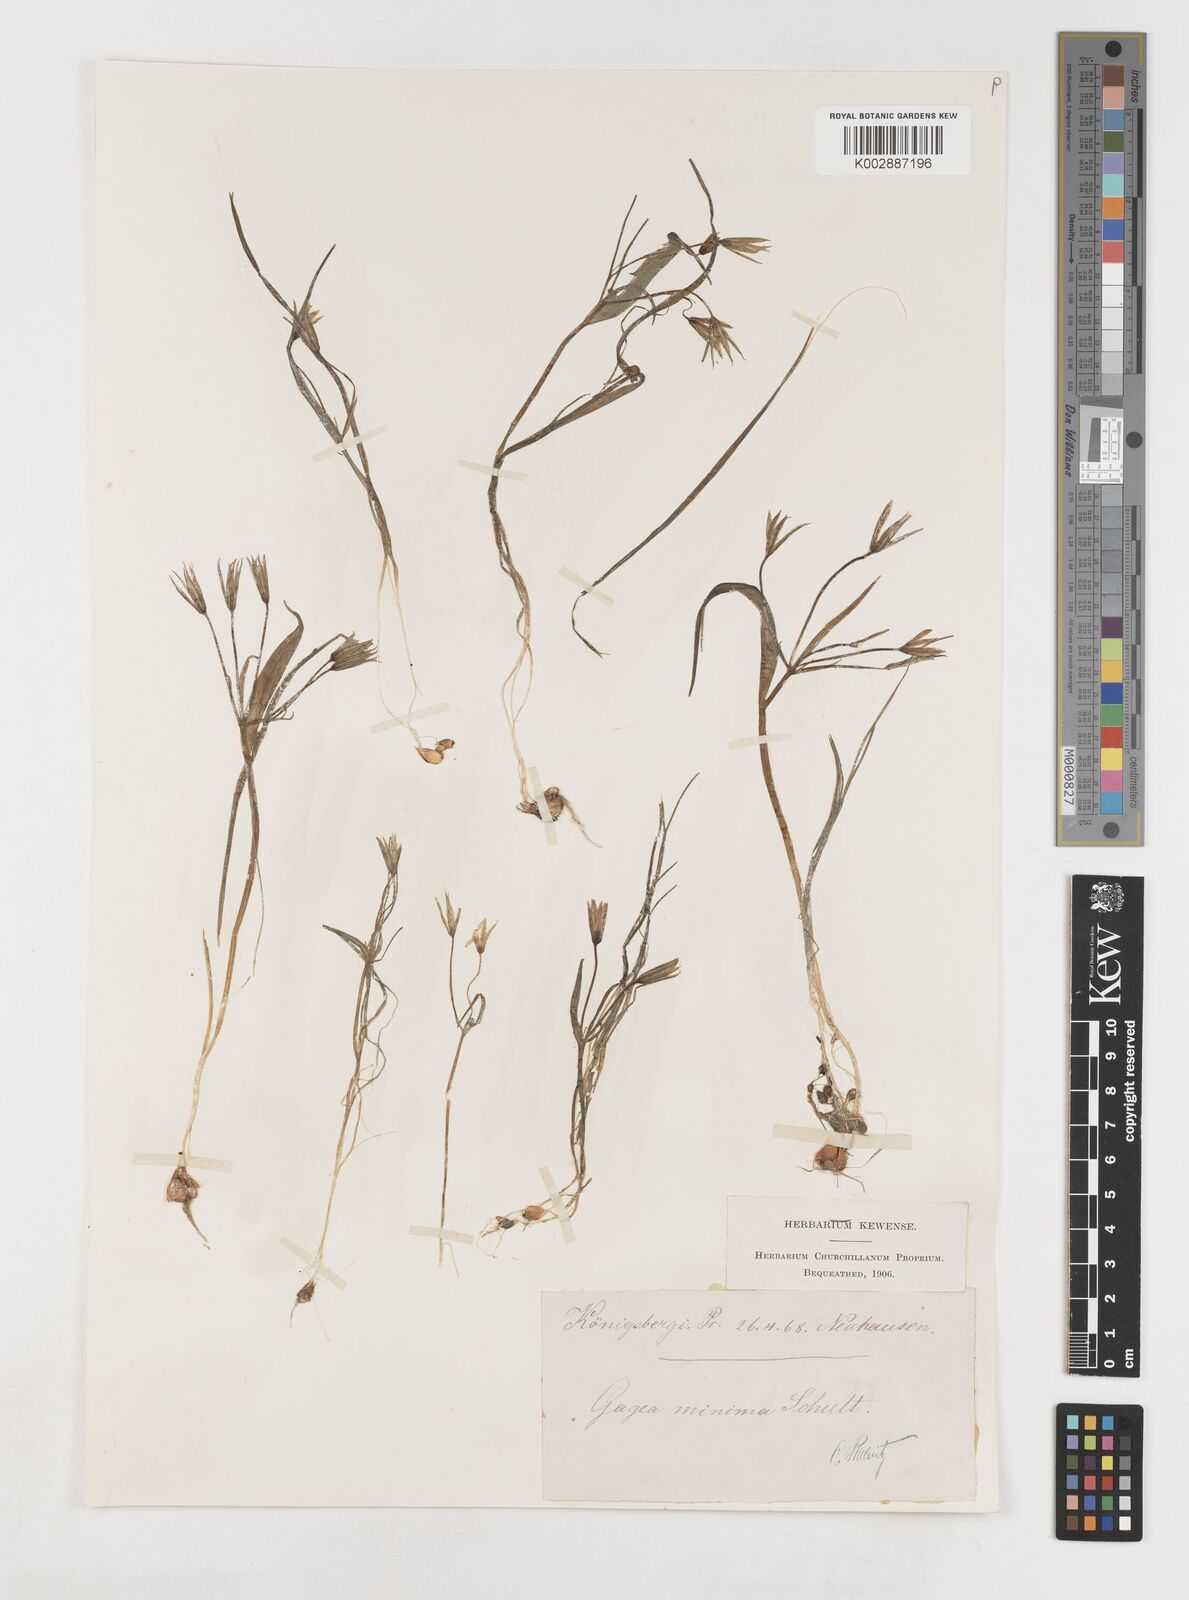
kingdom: Plantae
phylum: Tracheophyta
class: Liliopsida
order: Liliales
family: Liliaceae
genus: Gagea
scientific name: Gagea minima
